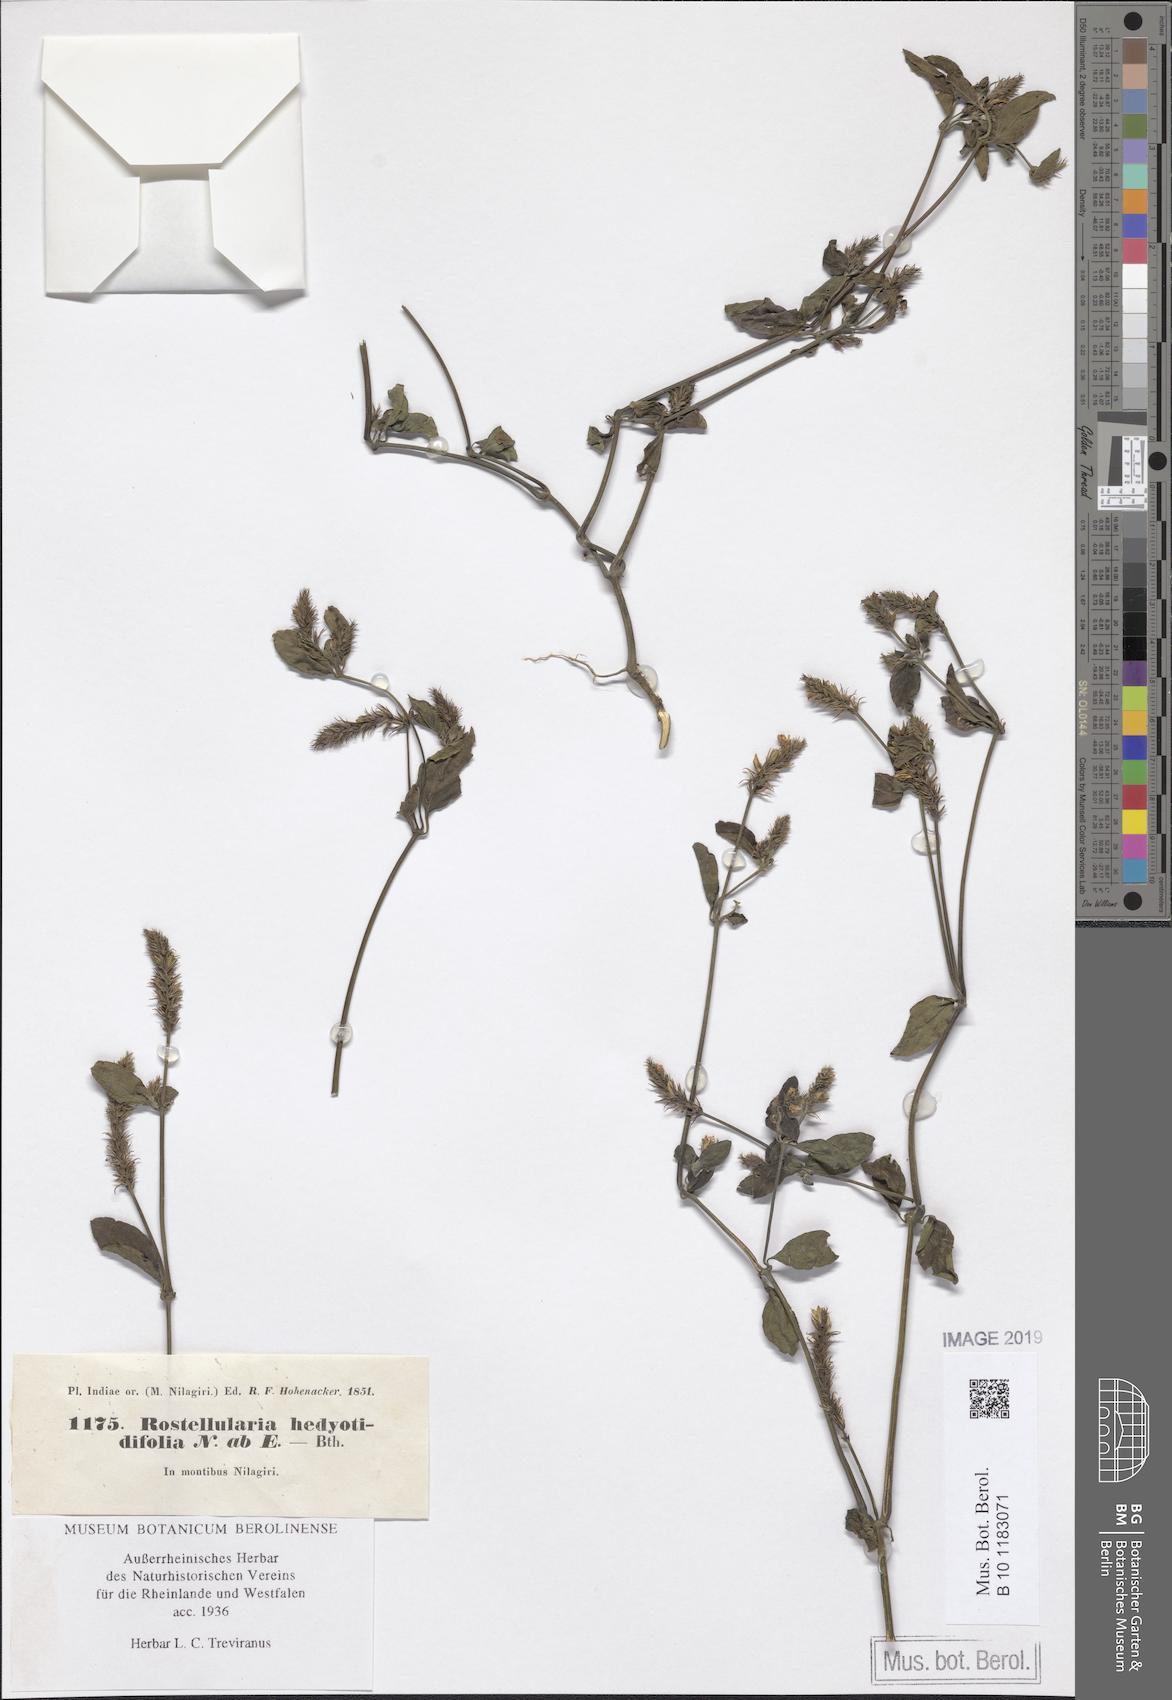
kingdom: Plantae
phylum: Tracheophyta
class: Magnoliopsida
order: Lamiales
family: Acanthaceae
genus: Rostellularia
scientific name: Rostellularia diffusa
